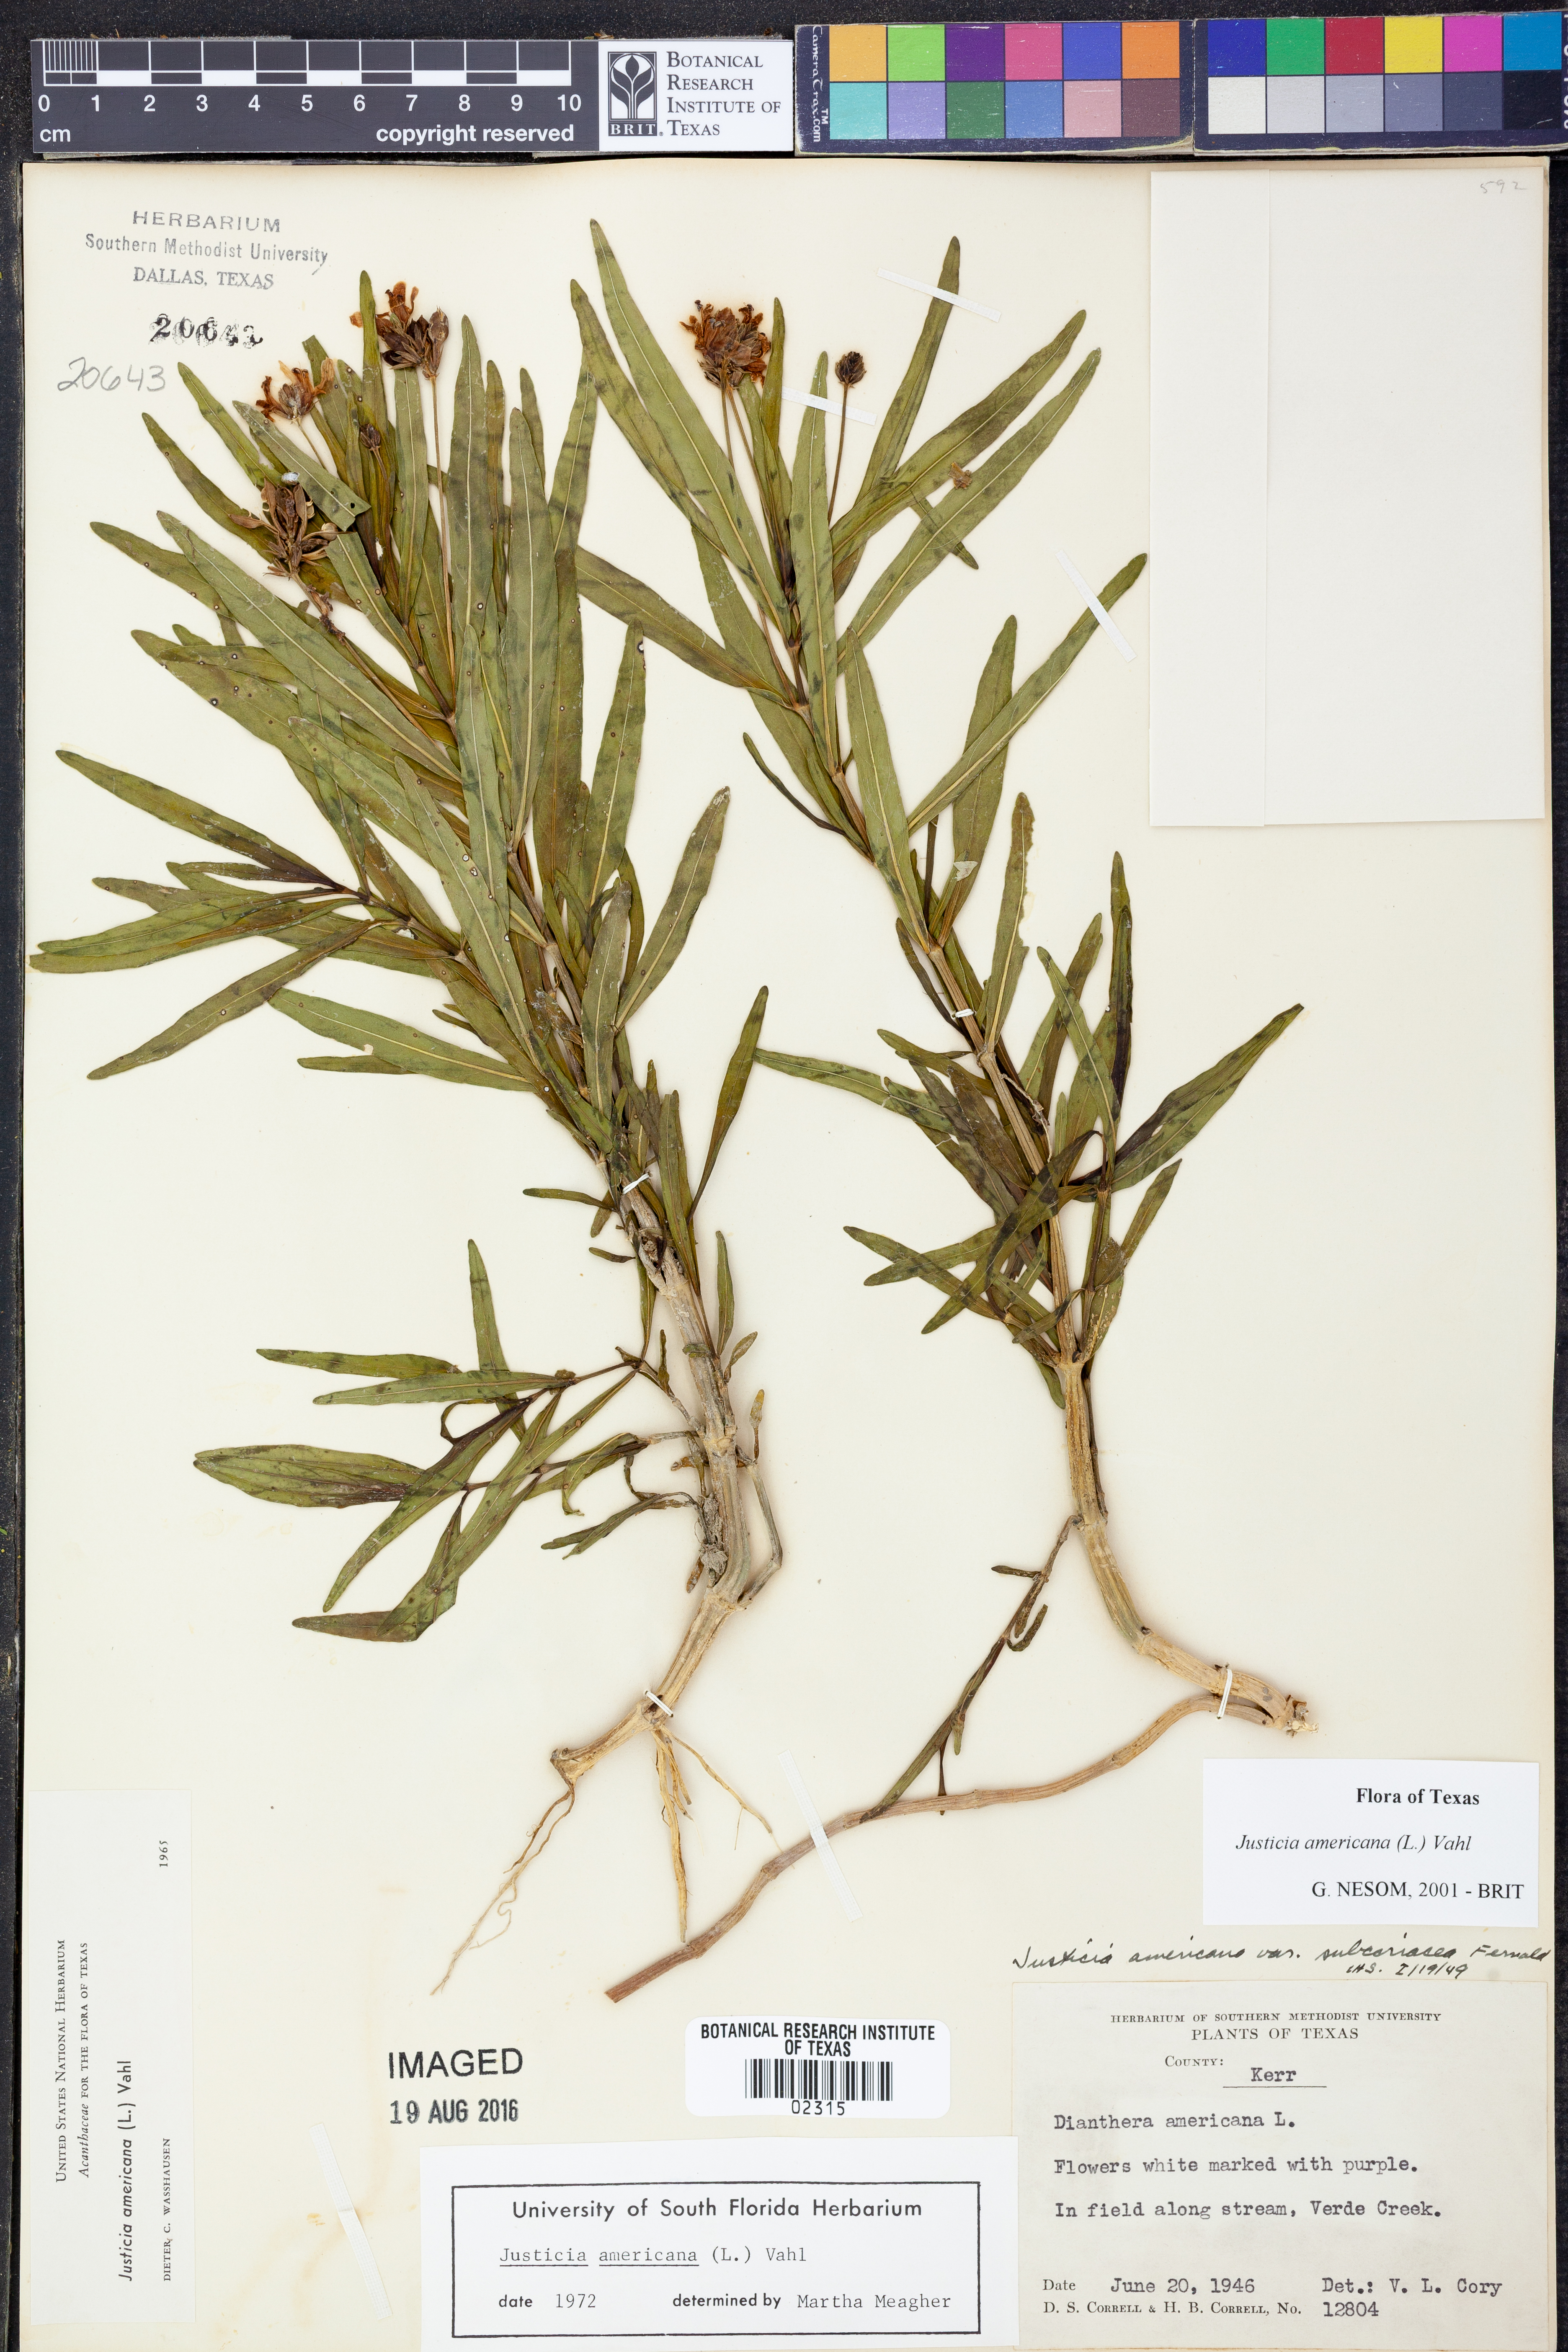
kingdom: Plantae
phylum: Tracheophyta
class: Magnoliopsida
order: Lamiales
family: Acanthaceae
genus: Dianthera
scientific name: Dianthera americana
